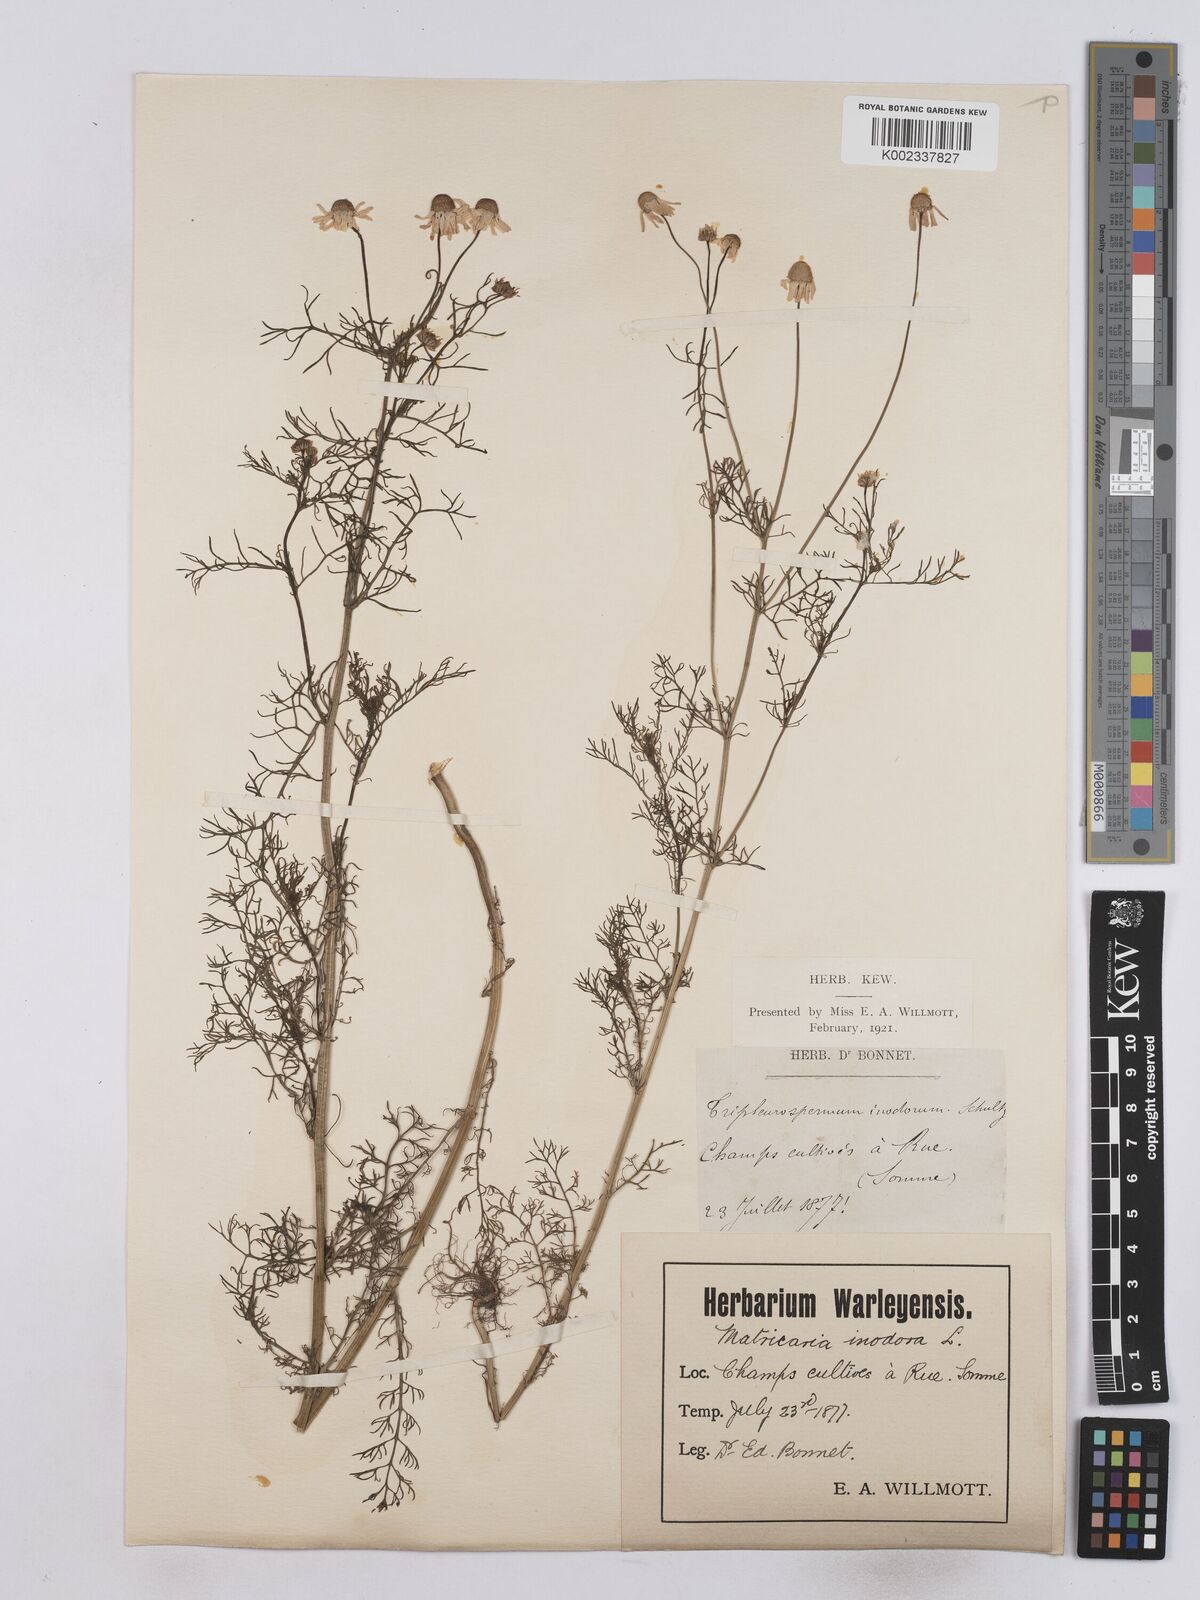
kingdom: Plantae
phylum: Tracheophyta
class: Magnoliopsida
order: Asterales
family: Asteraceae
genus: Matricaria
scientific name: Matricaria chamomilla
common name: Scented mayweed
